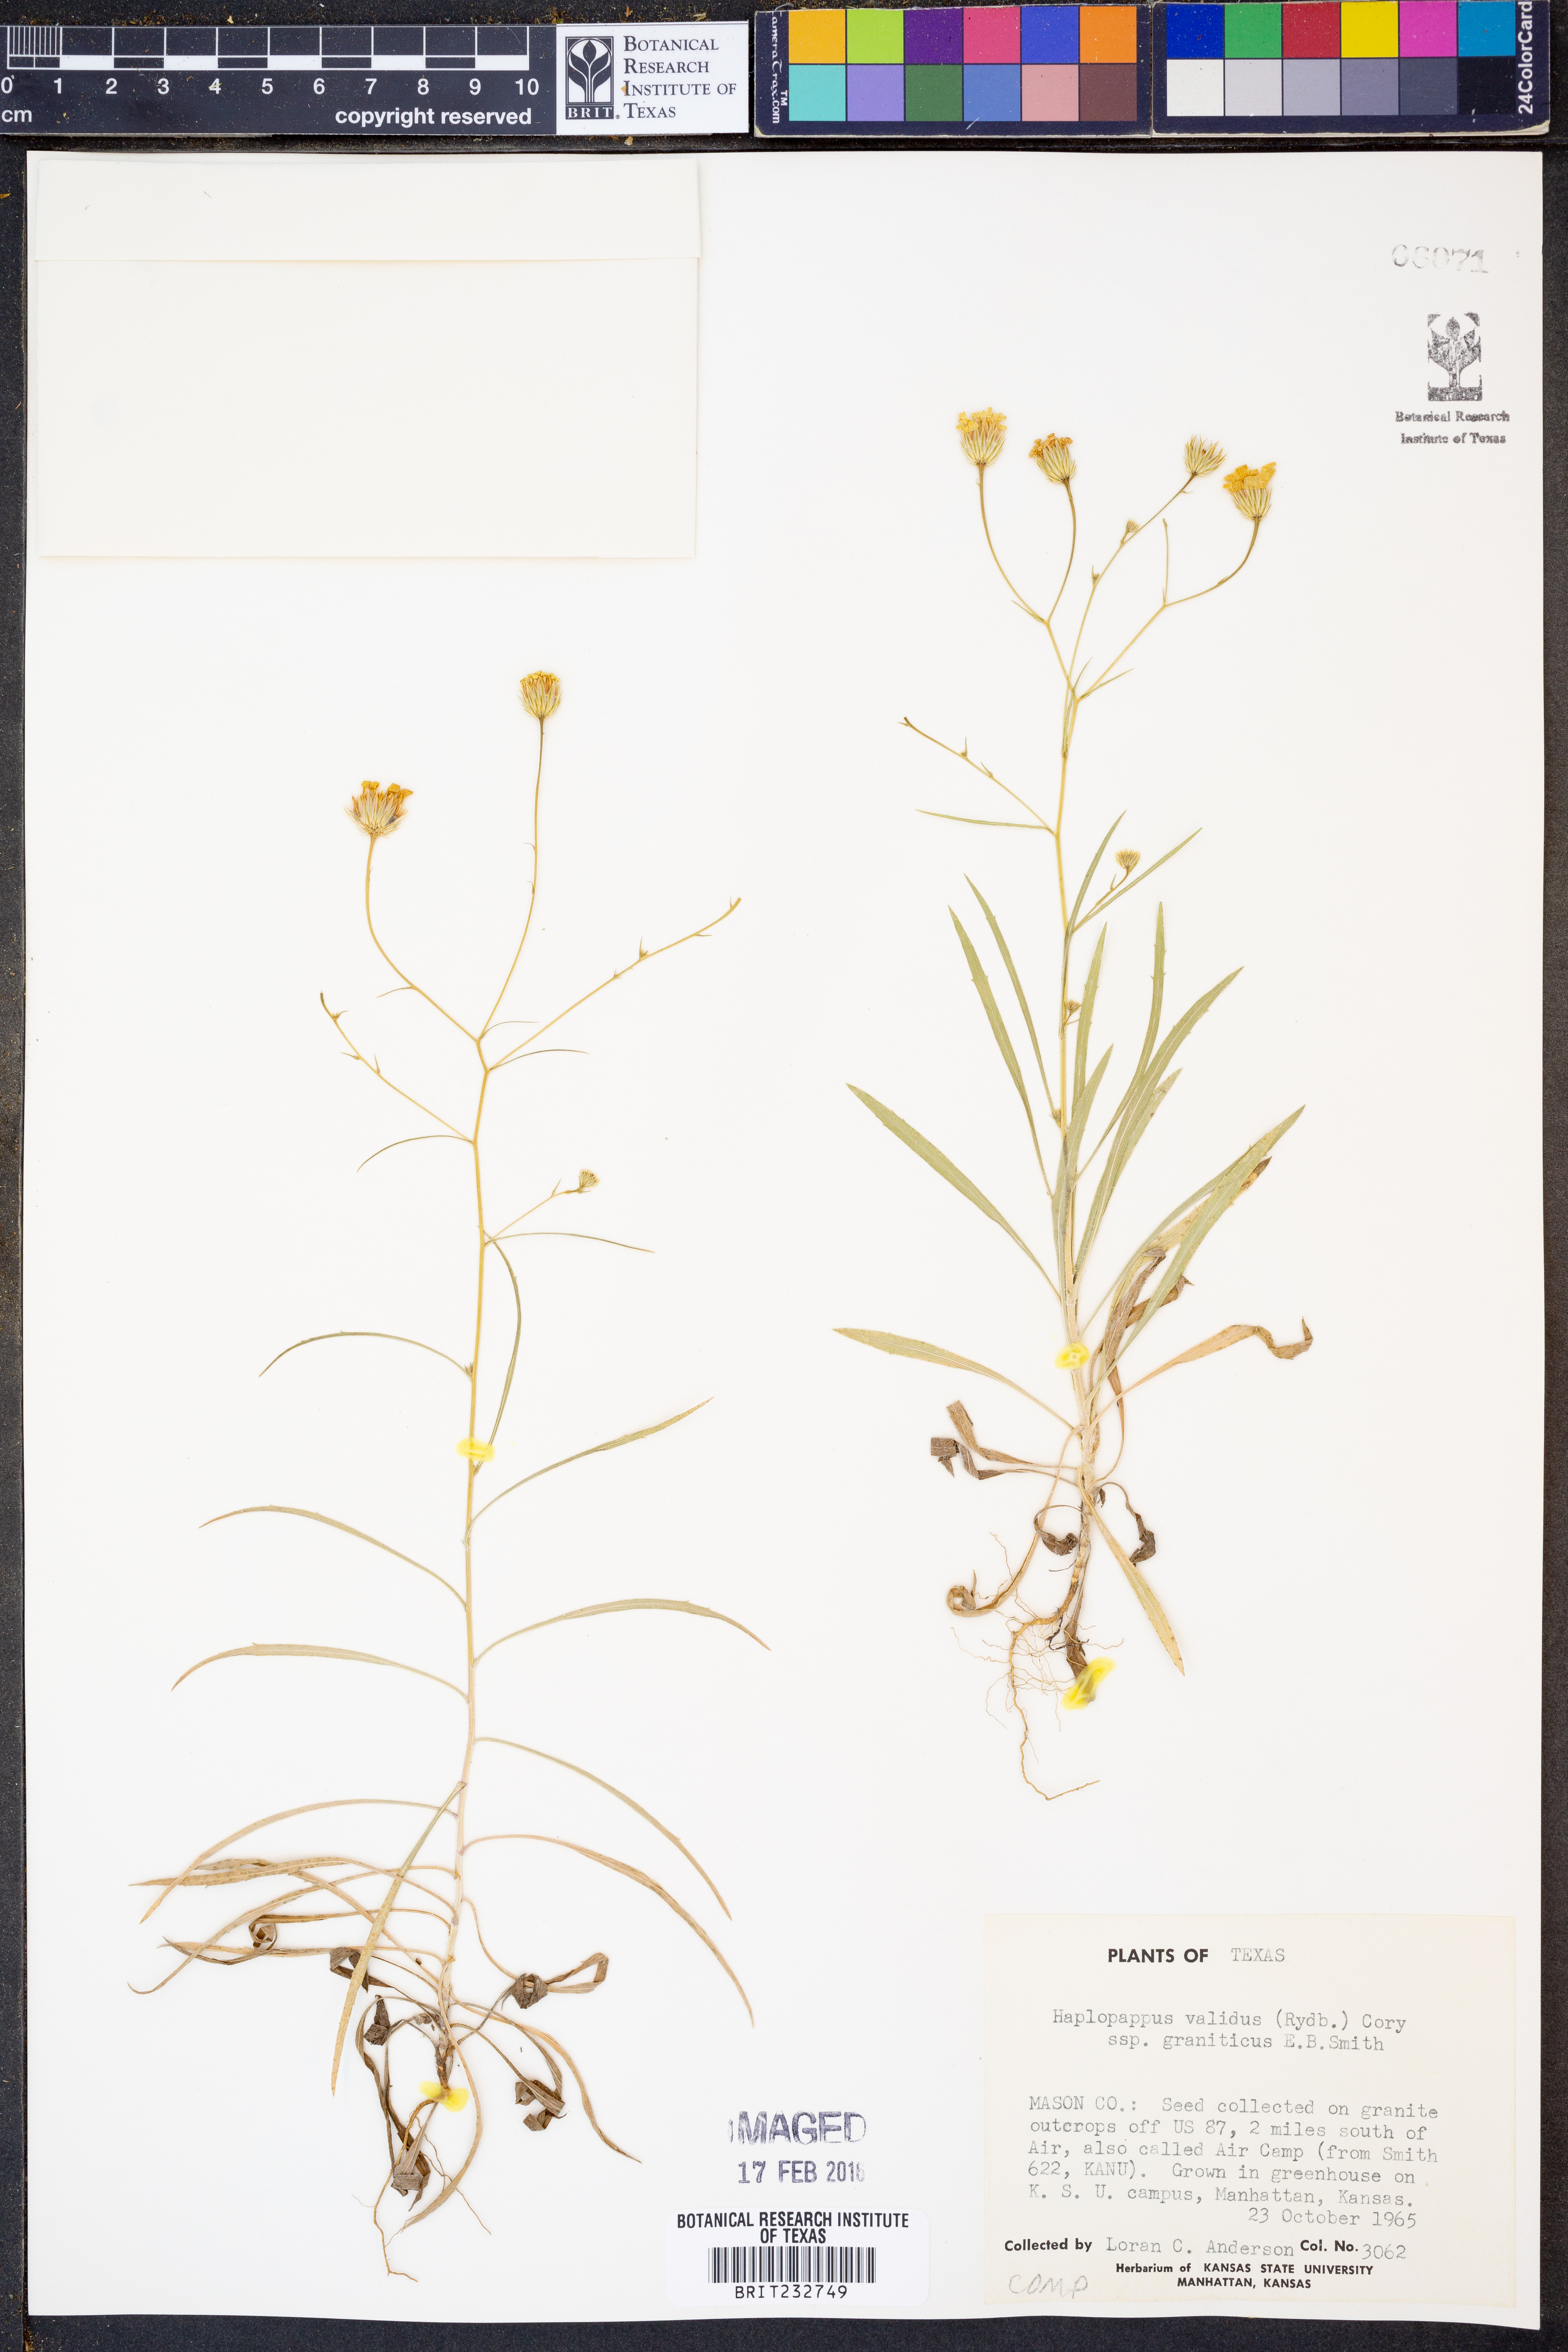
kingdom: Plantae
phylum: Tracheophyta
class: Magnoliopsida
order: Asterales
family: Asteraceae
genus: Croptilon
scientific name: Croptilon hookerianum
